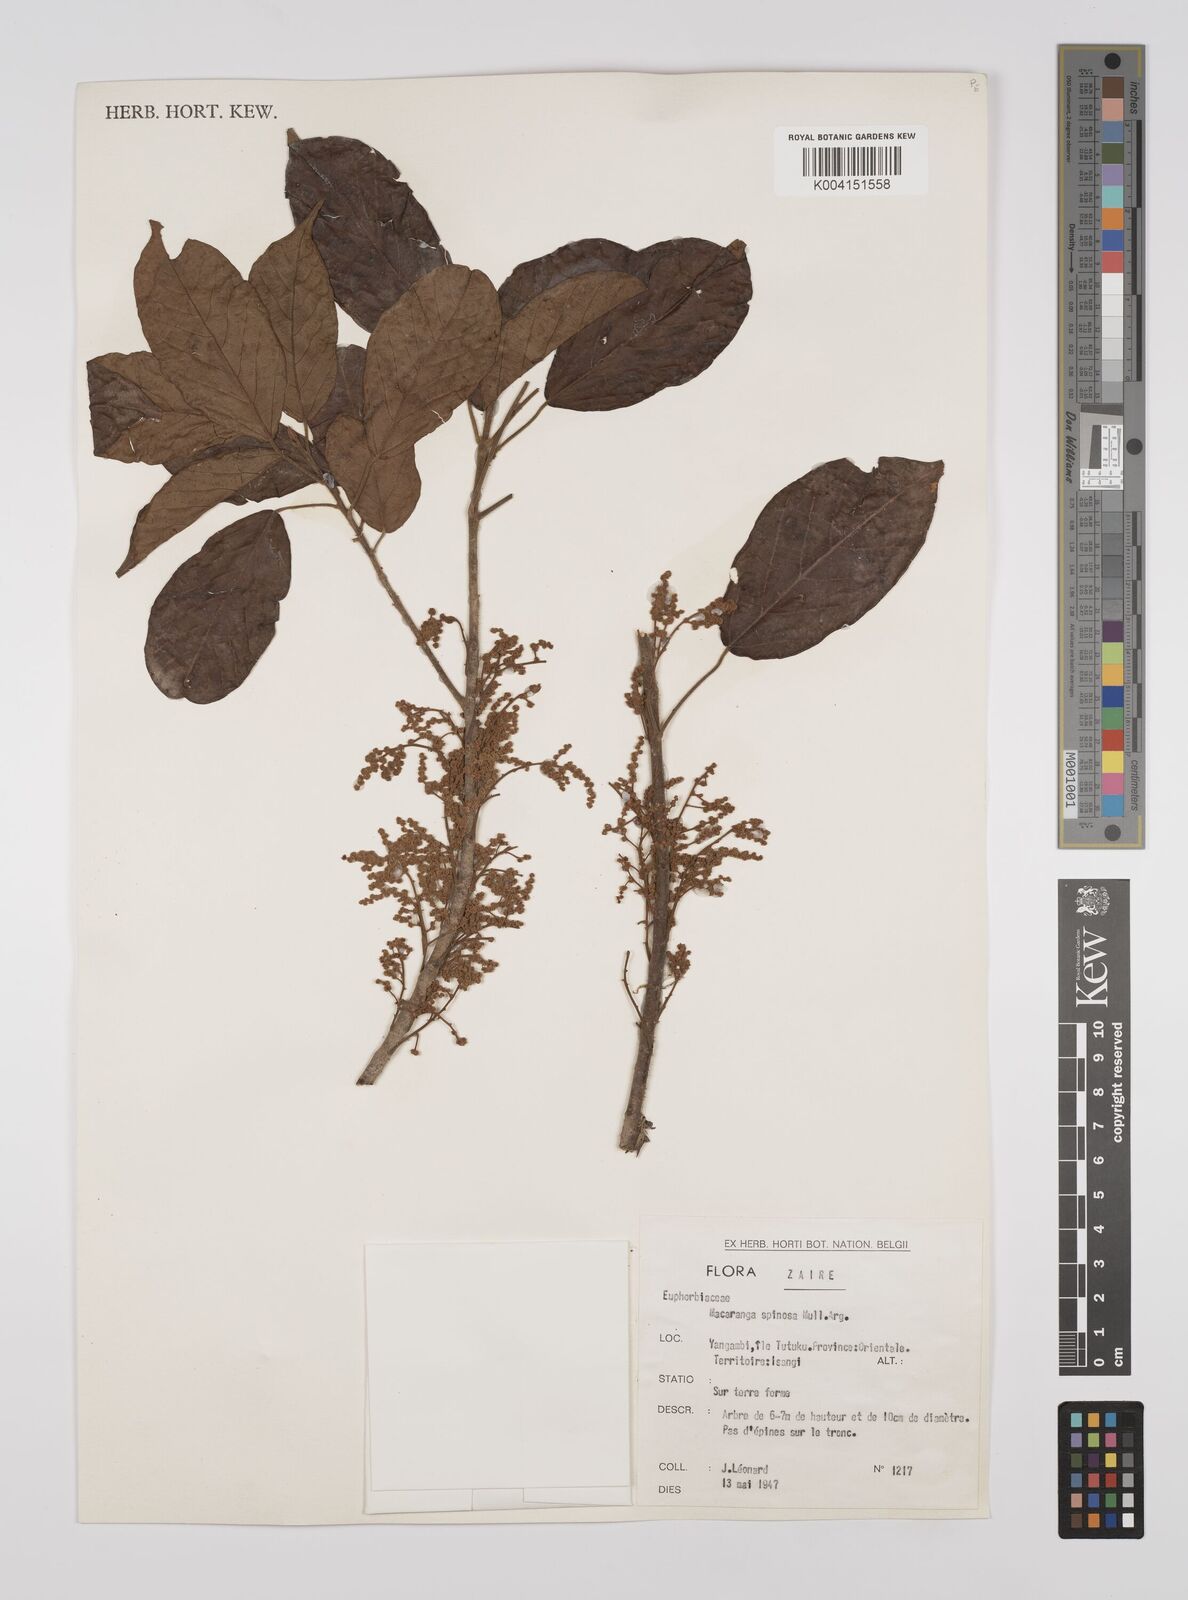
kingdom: Plantae
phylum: Tracheophyta
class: Magnoliopsida
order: Malpighiales
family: Euphorbiaceae
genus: Macaranga
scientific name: Macaranga spinosa
